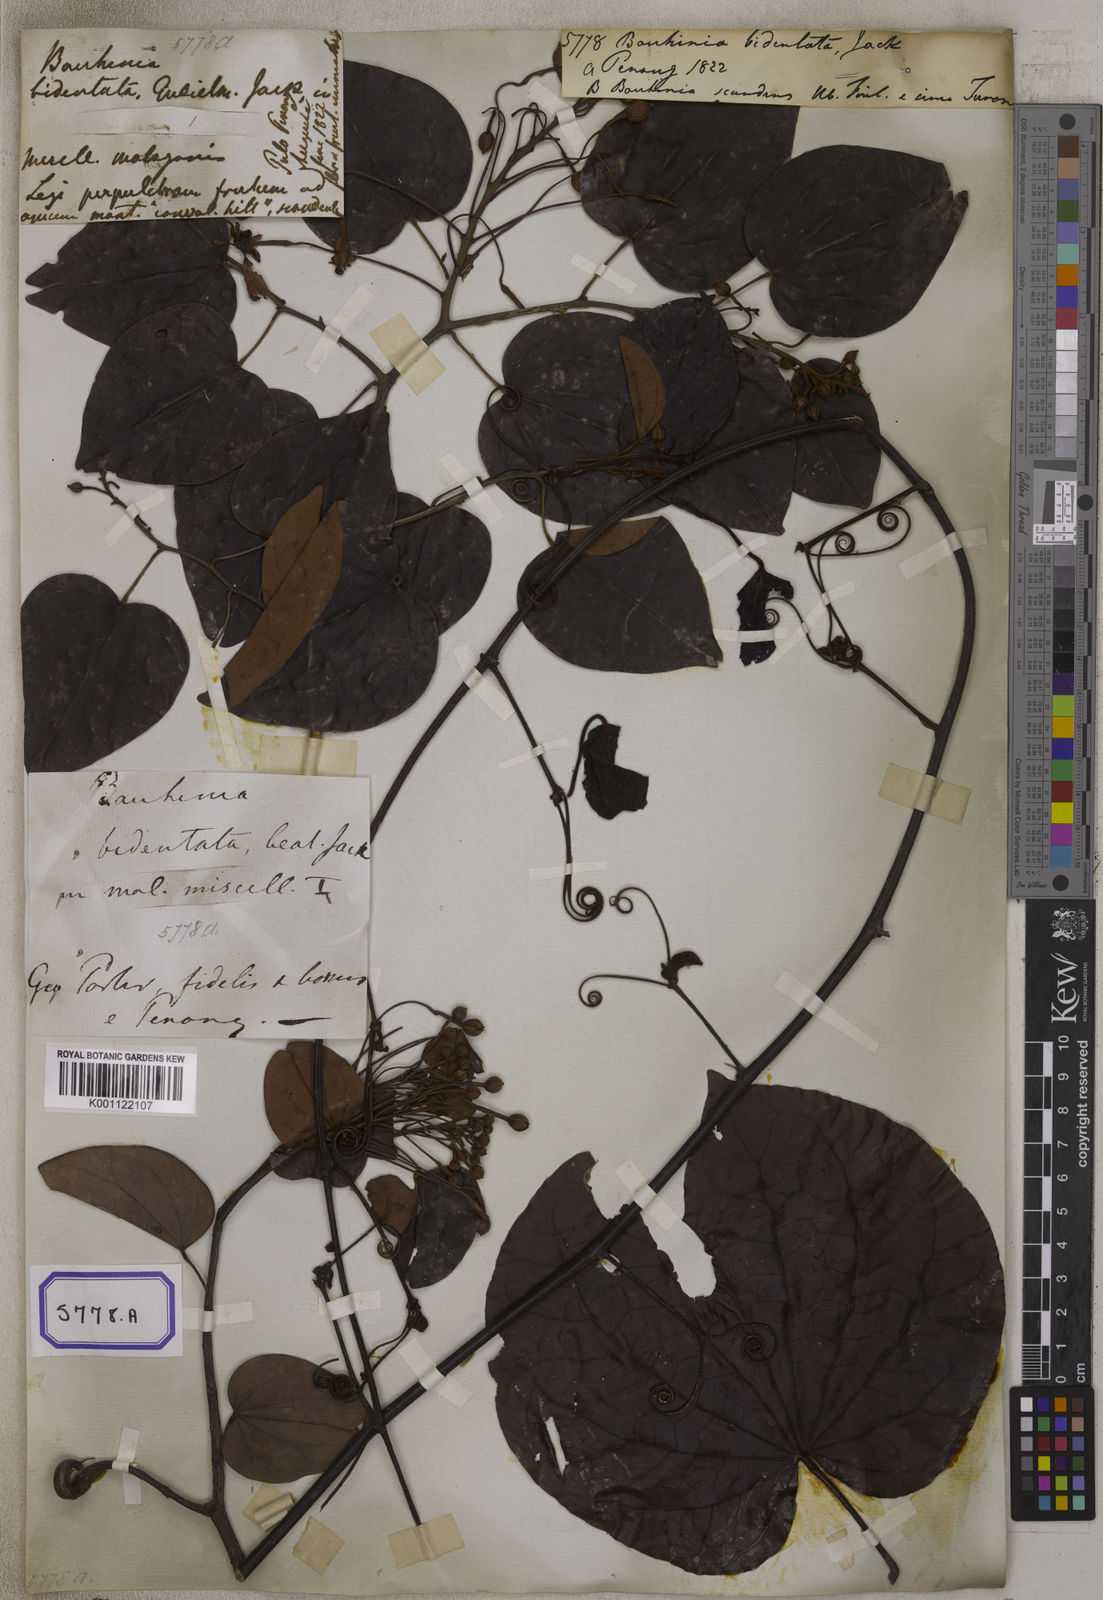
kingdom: Plantae
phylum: Tracheophyta
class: Magnoliopsida
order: Fabales
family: Fabaceae
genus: Phanera
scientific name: Phanera bidentata
